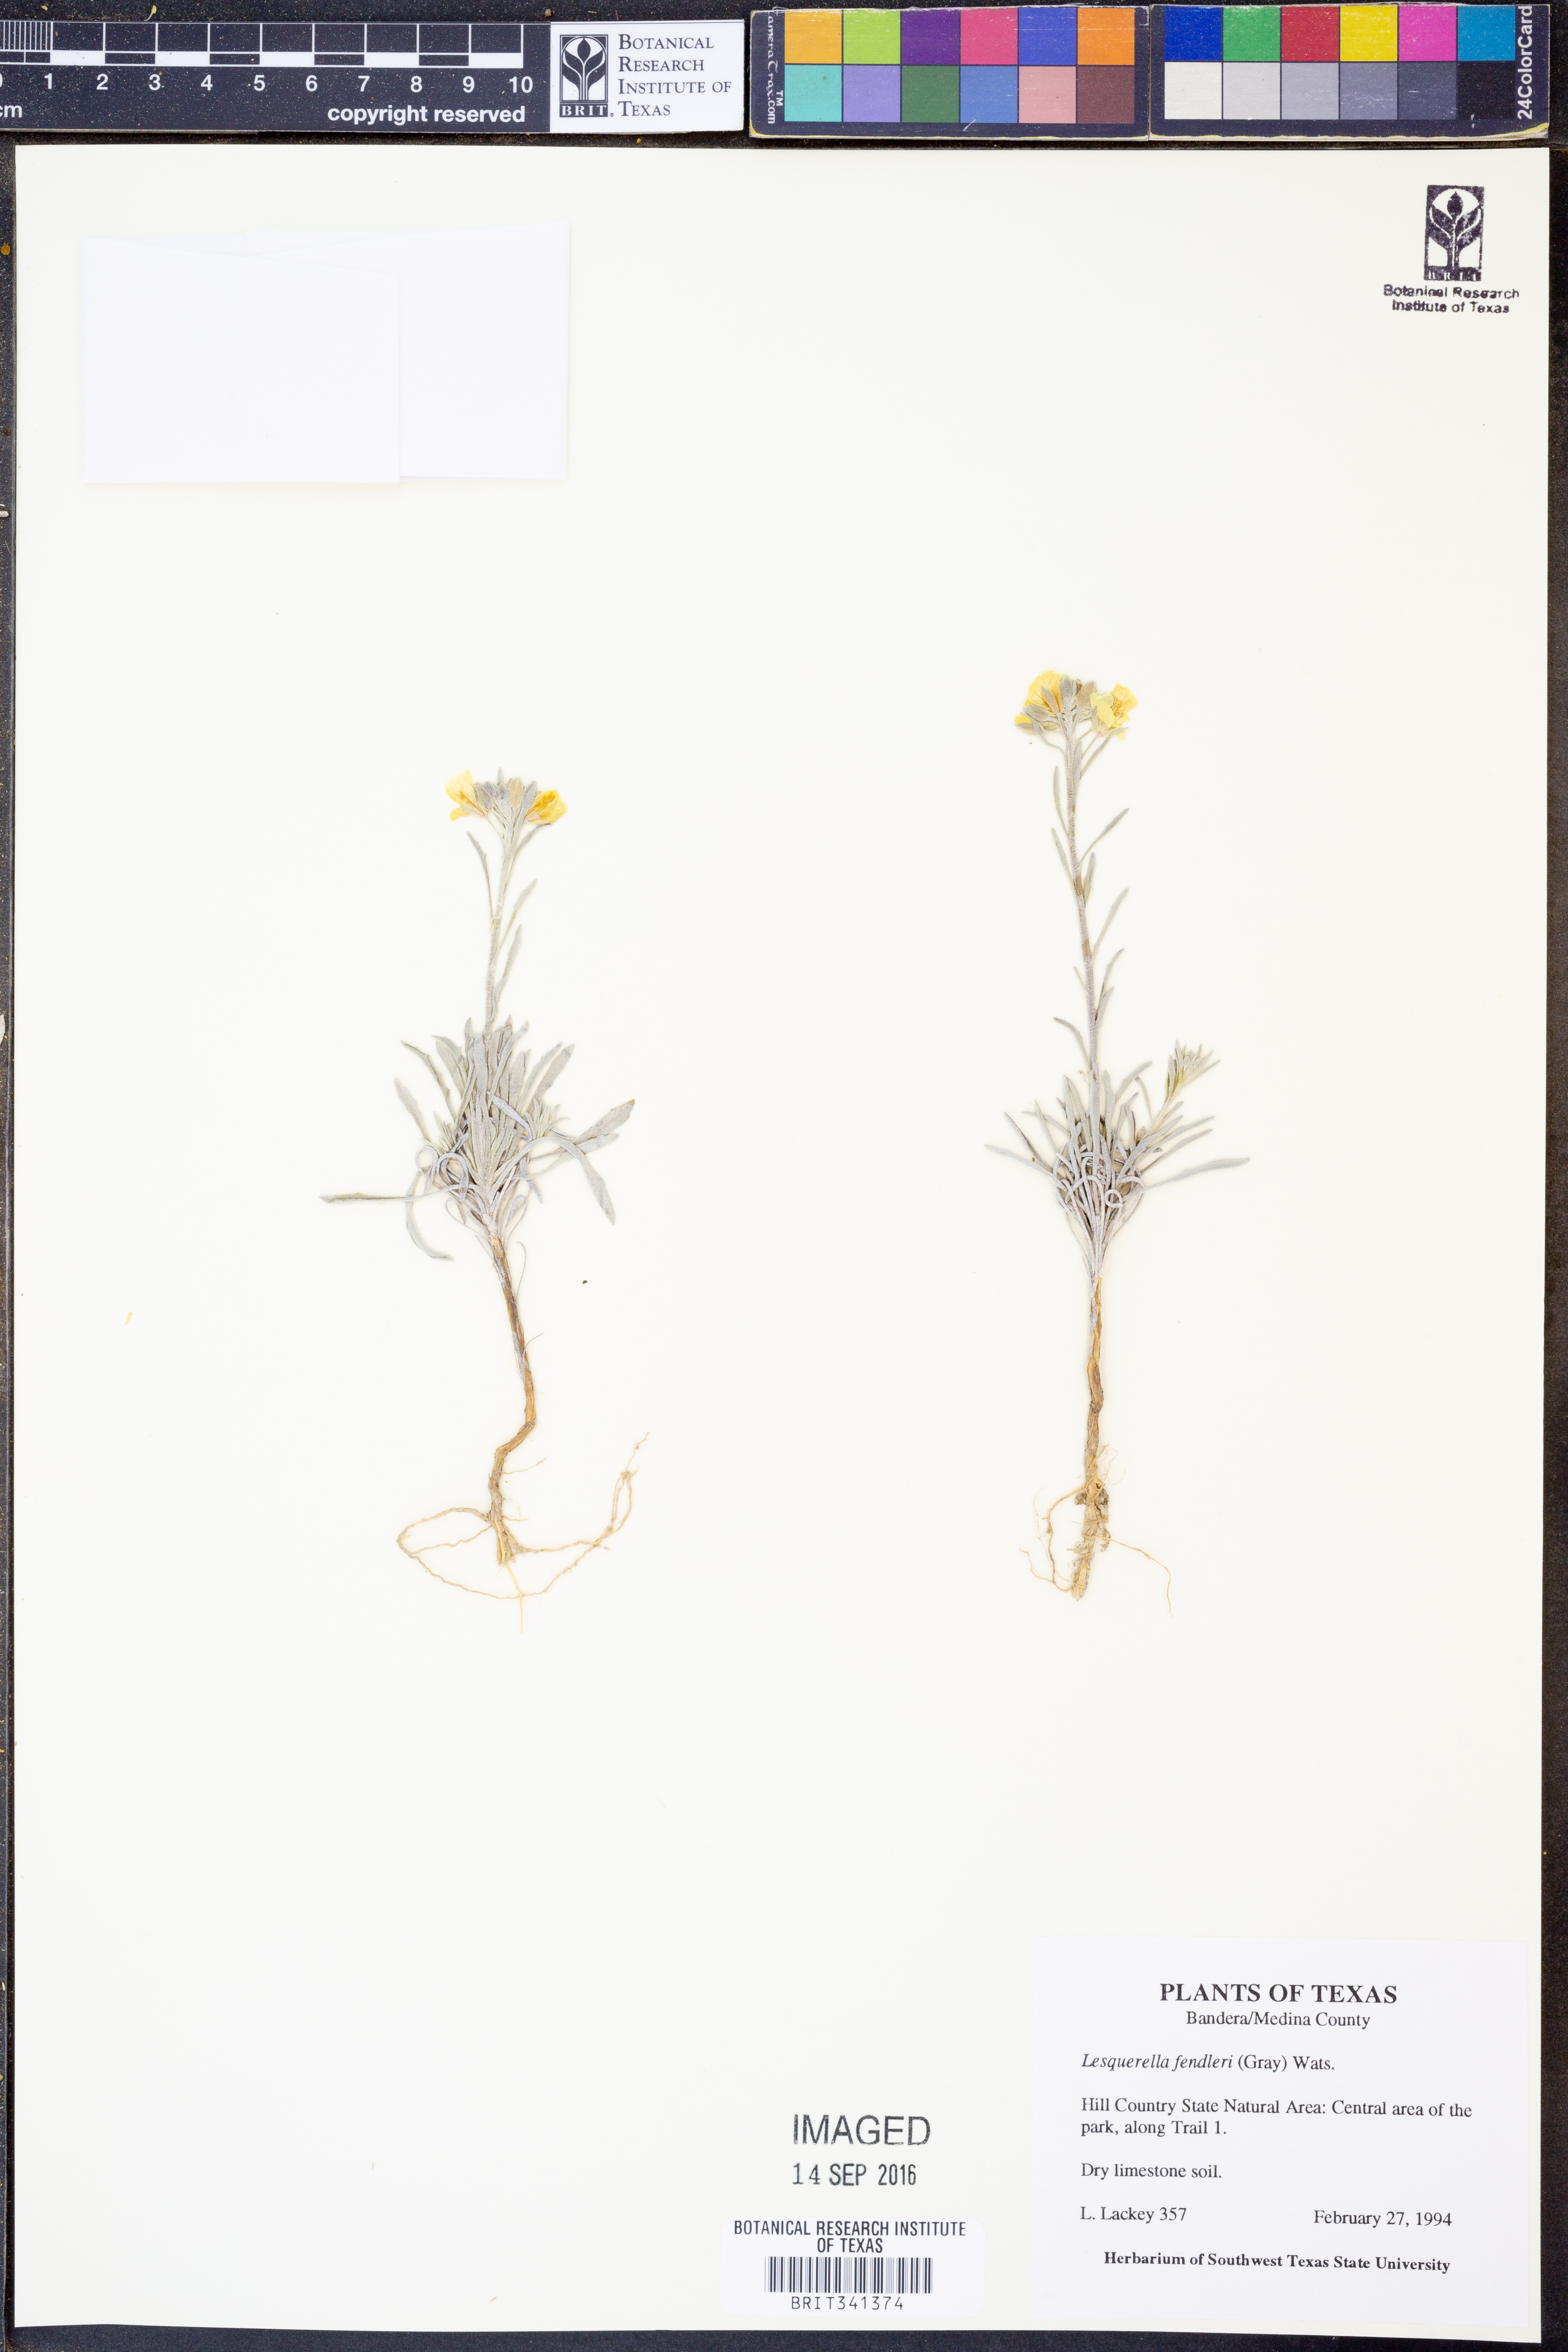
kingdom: Plantae
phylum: Tracheophyta
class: Magnoliopsida
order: Brassicales
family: Brassicaceae
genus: Physaria
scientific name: Physaria fendleri
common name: Fendler's bladderpod
